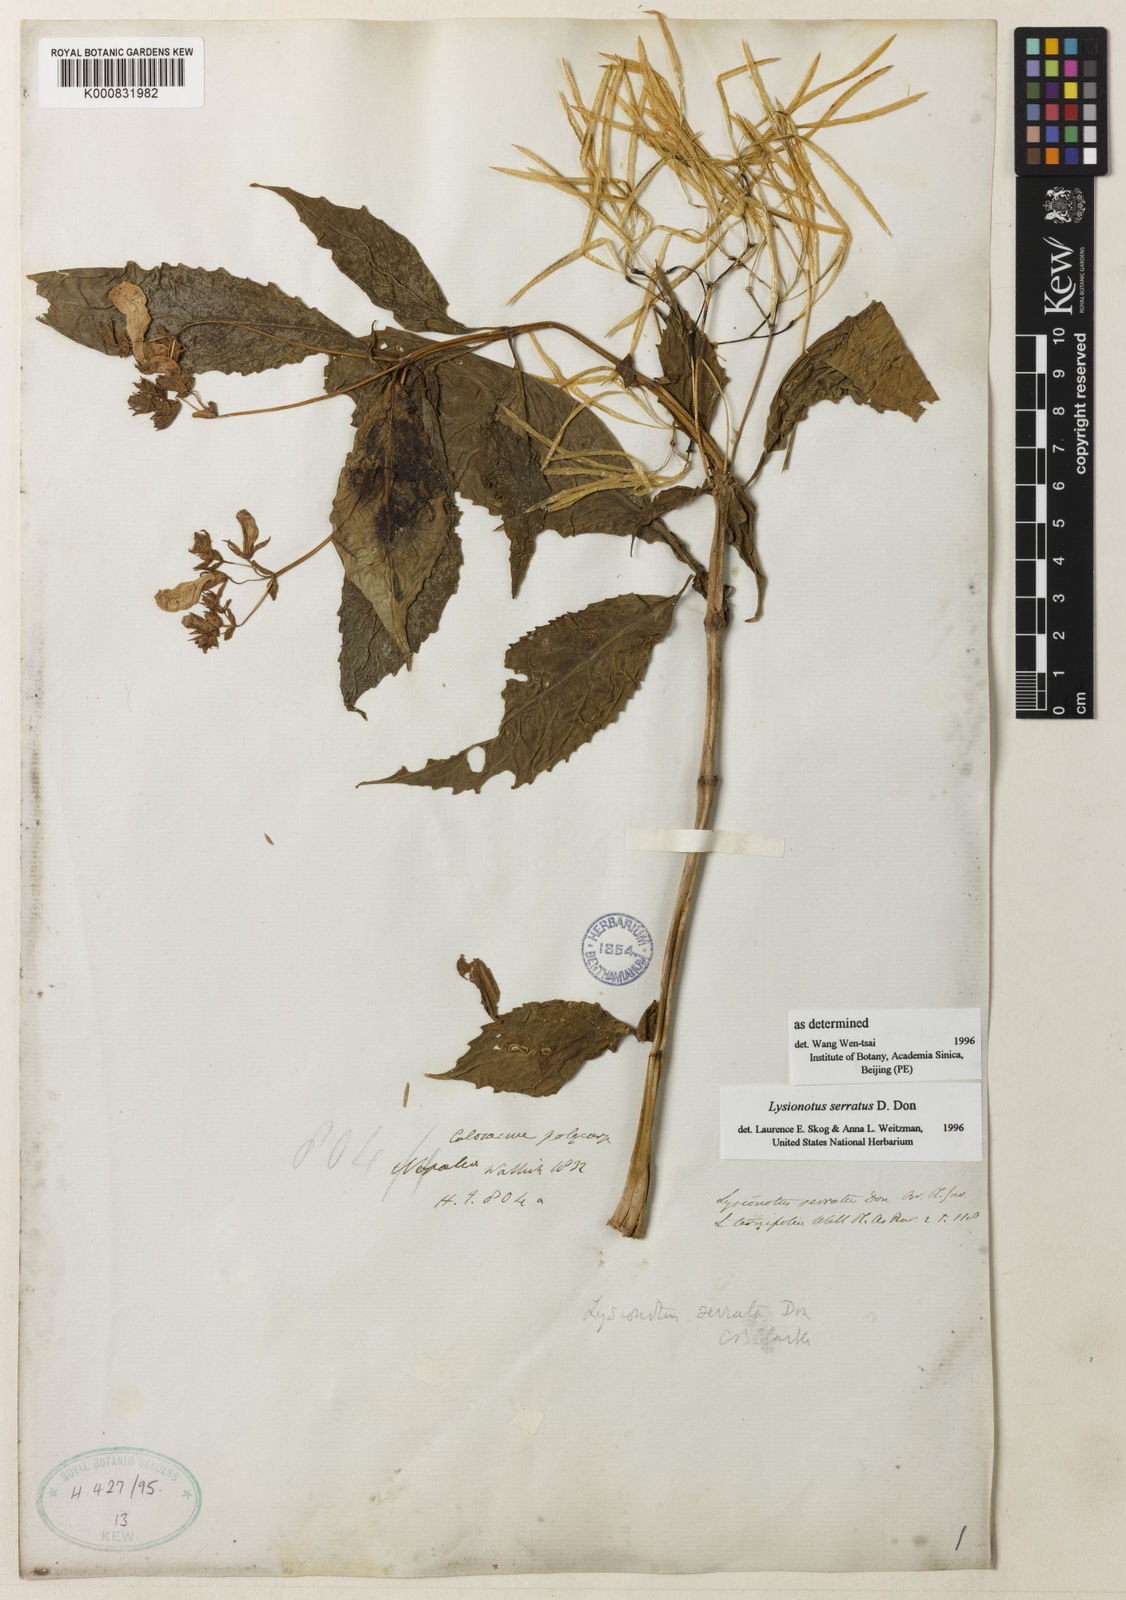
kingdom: Plantae
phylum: Tracheophyta
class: Magnoliopsida
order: Lamiales
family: Gesneriaceae
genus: Lysionotus
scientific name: Lysionotus serratus
